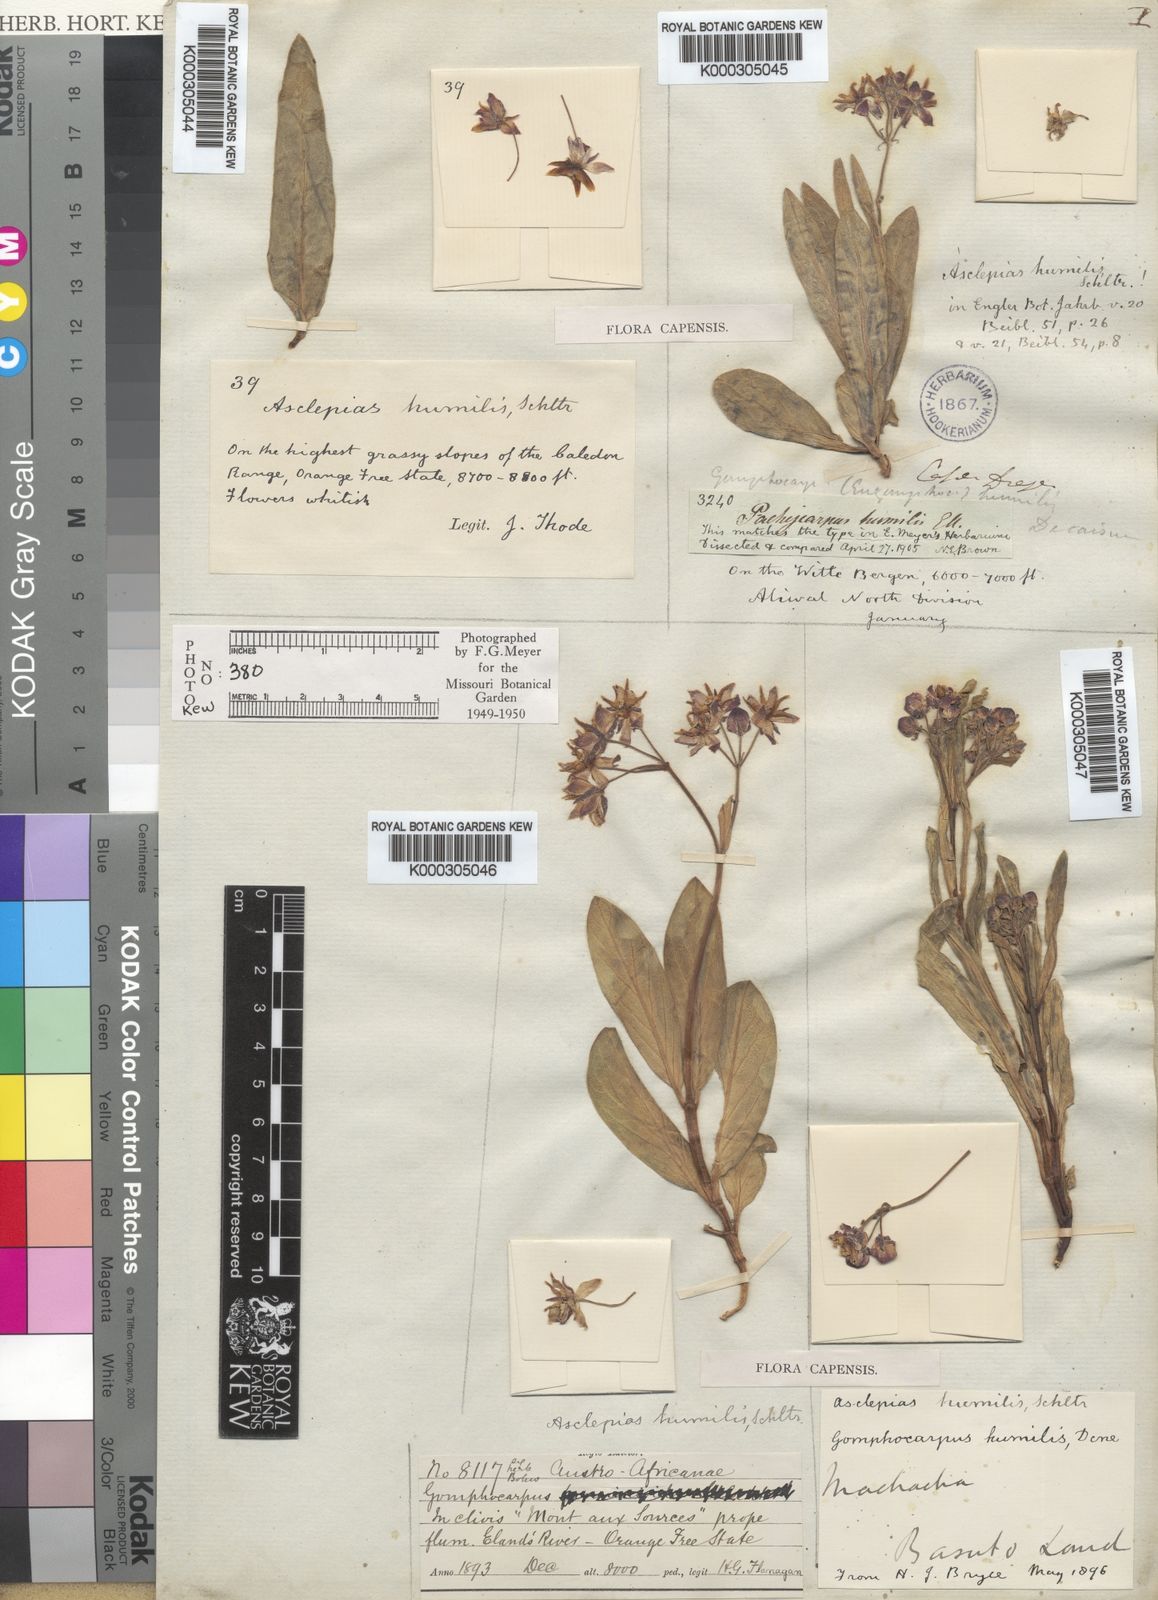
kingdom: Plantae
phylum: Tracheophyta
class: Magnoliopsida
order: Gentianales
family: Apocynaceae
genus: Asclepias
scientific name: Asclepias humilis
